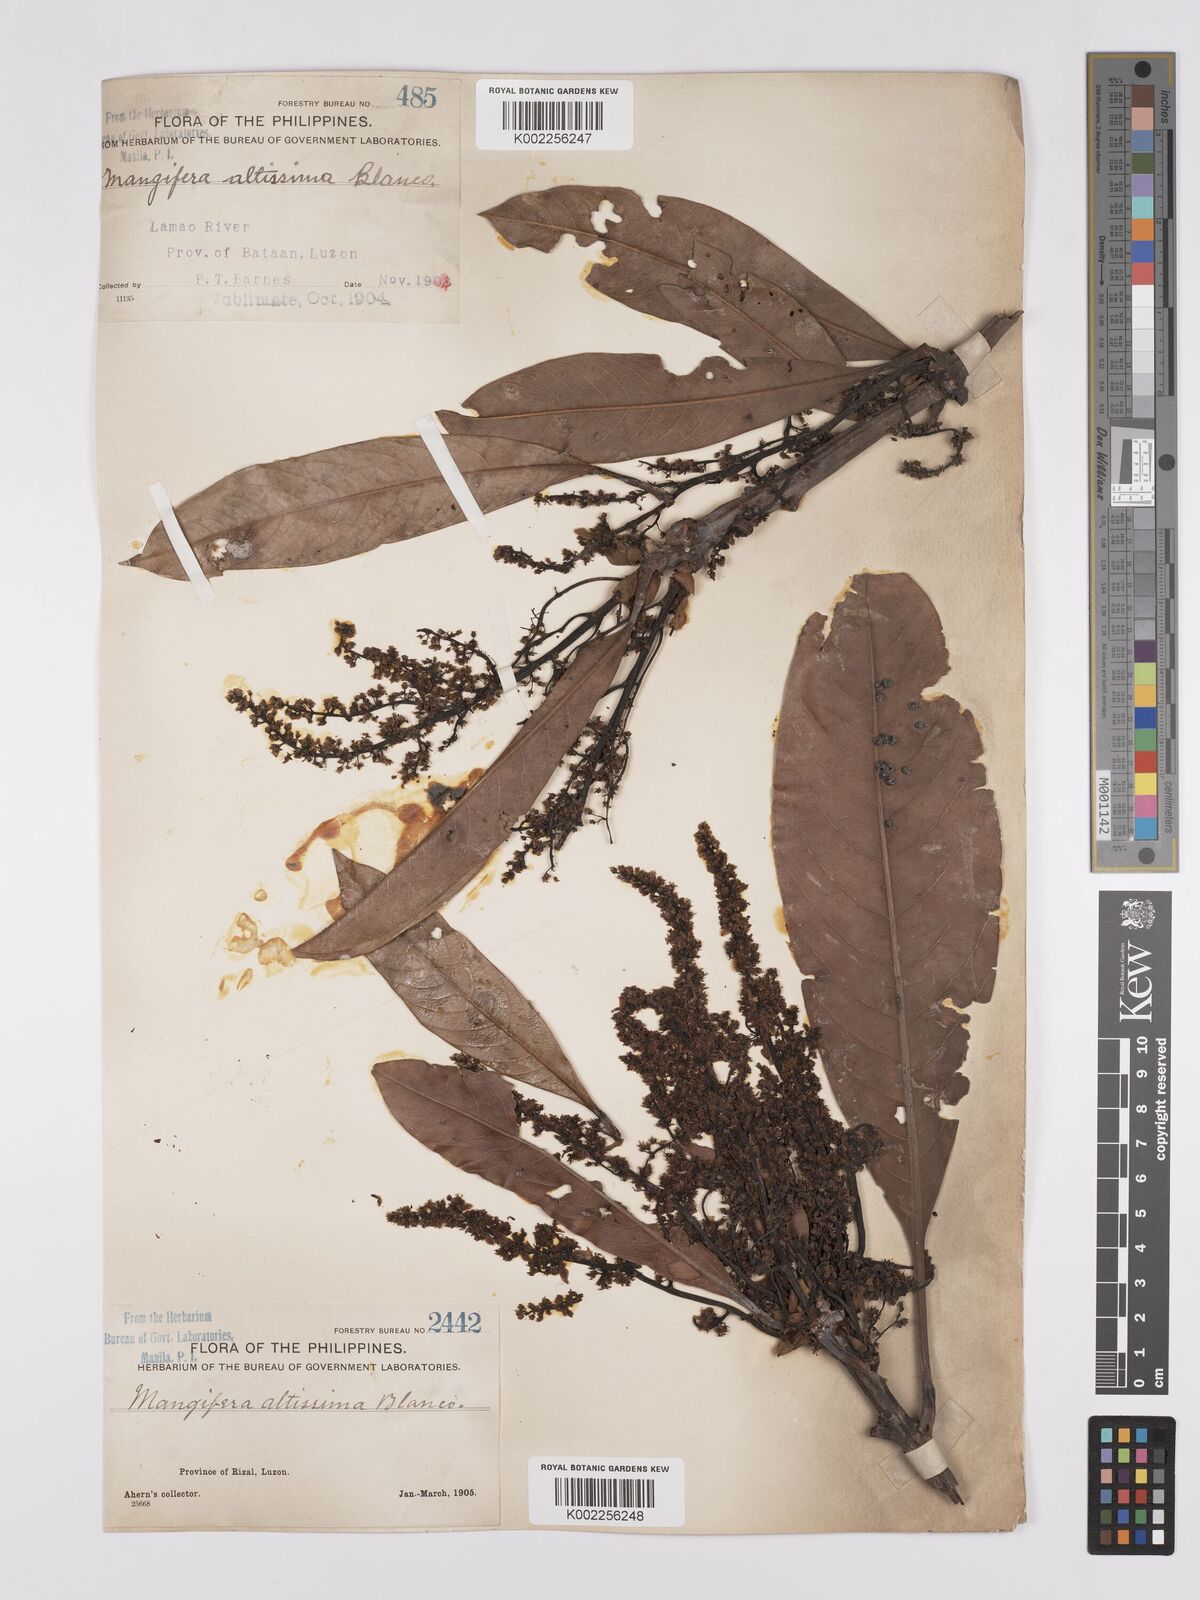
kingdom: Plantae
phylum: Tracheophyta
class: Magnoliopsida
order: Sapindales
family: Anacardiaceae
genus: Mangifera
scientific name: Mangifera altissima
